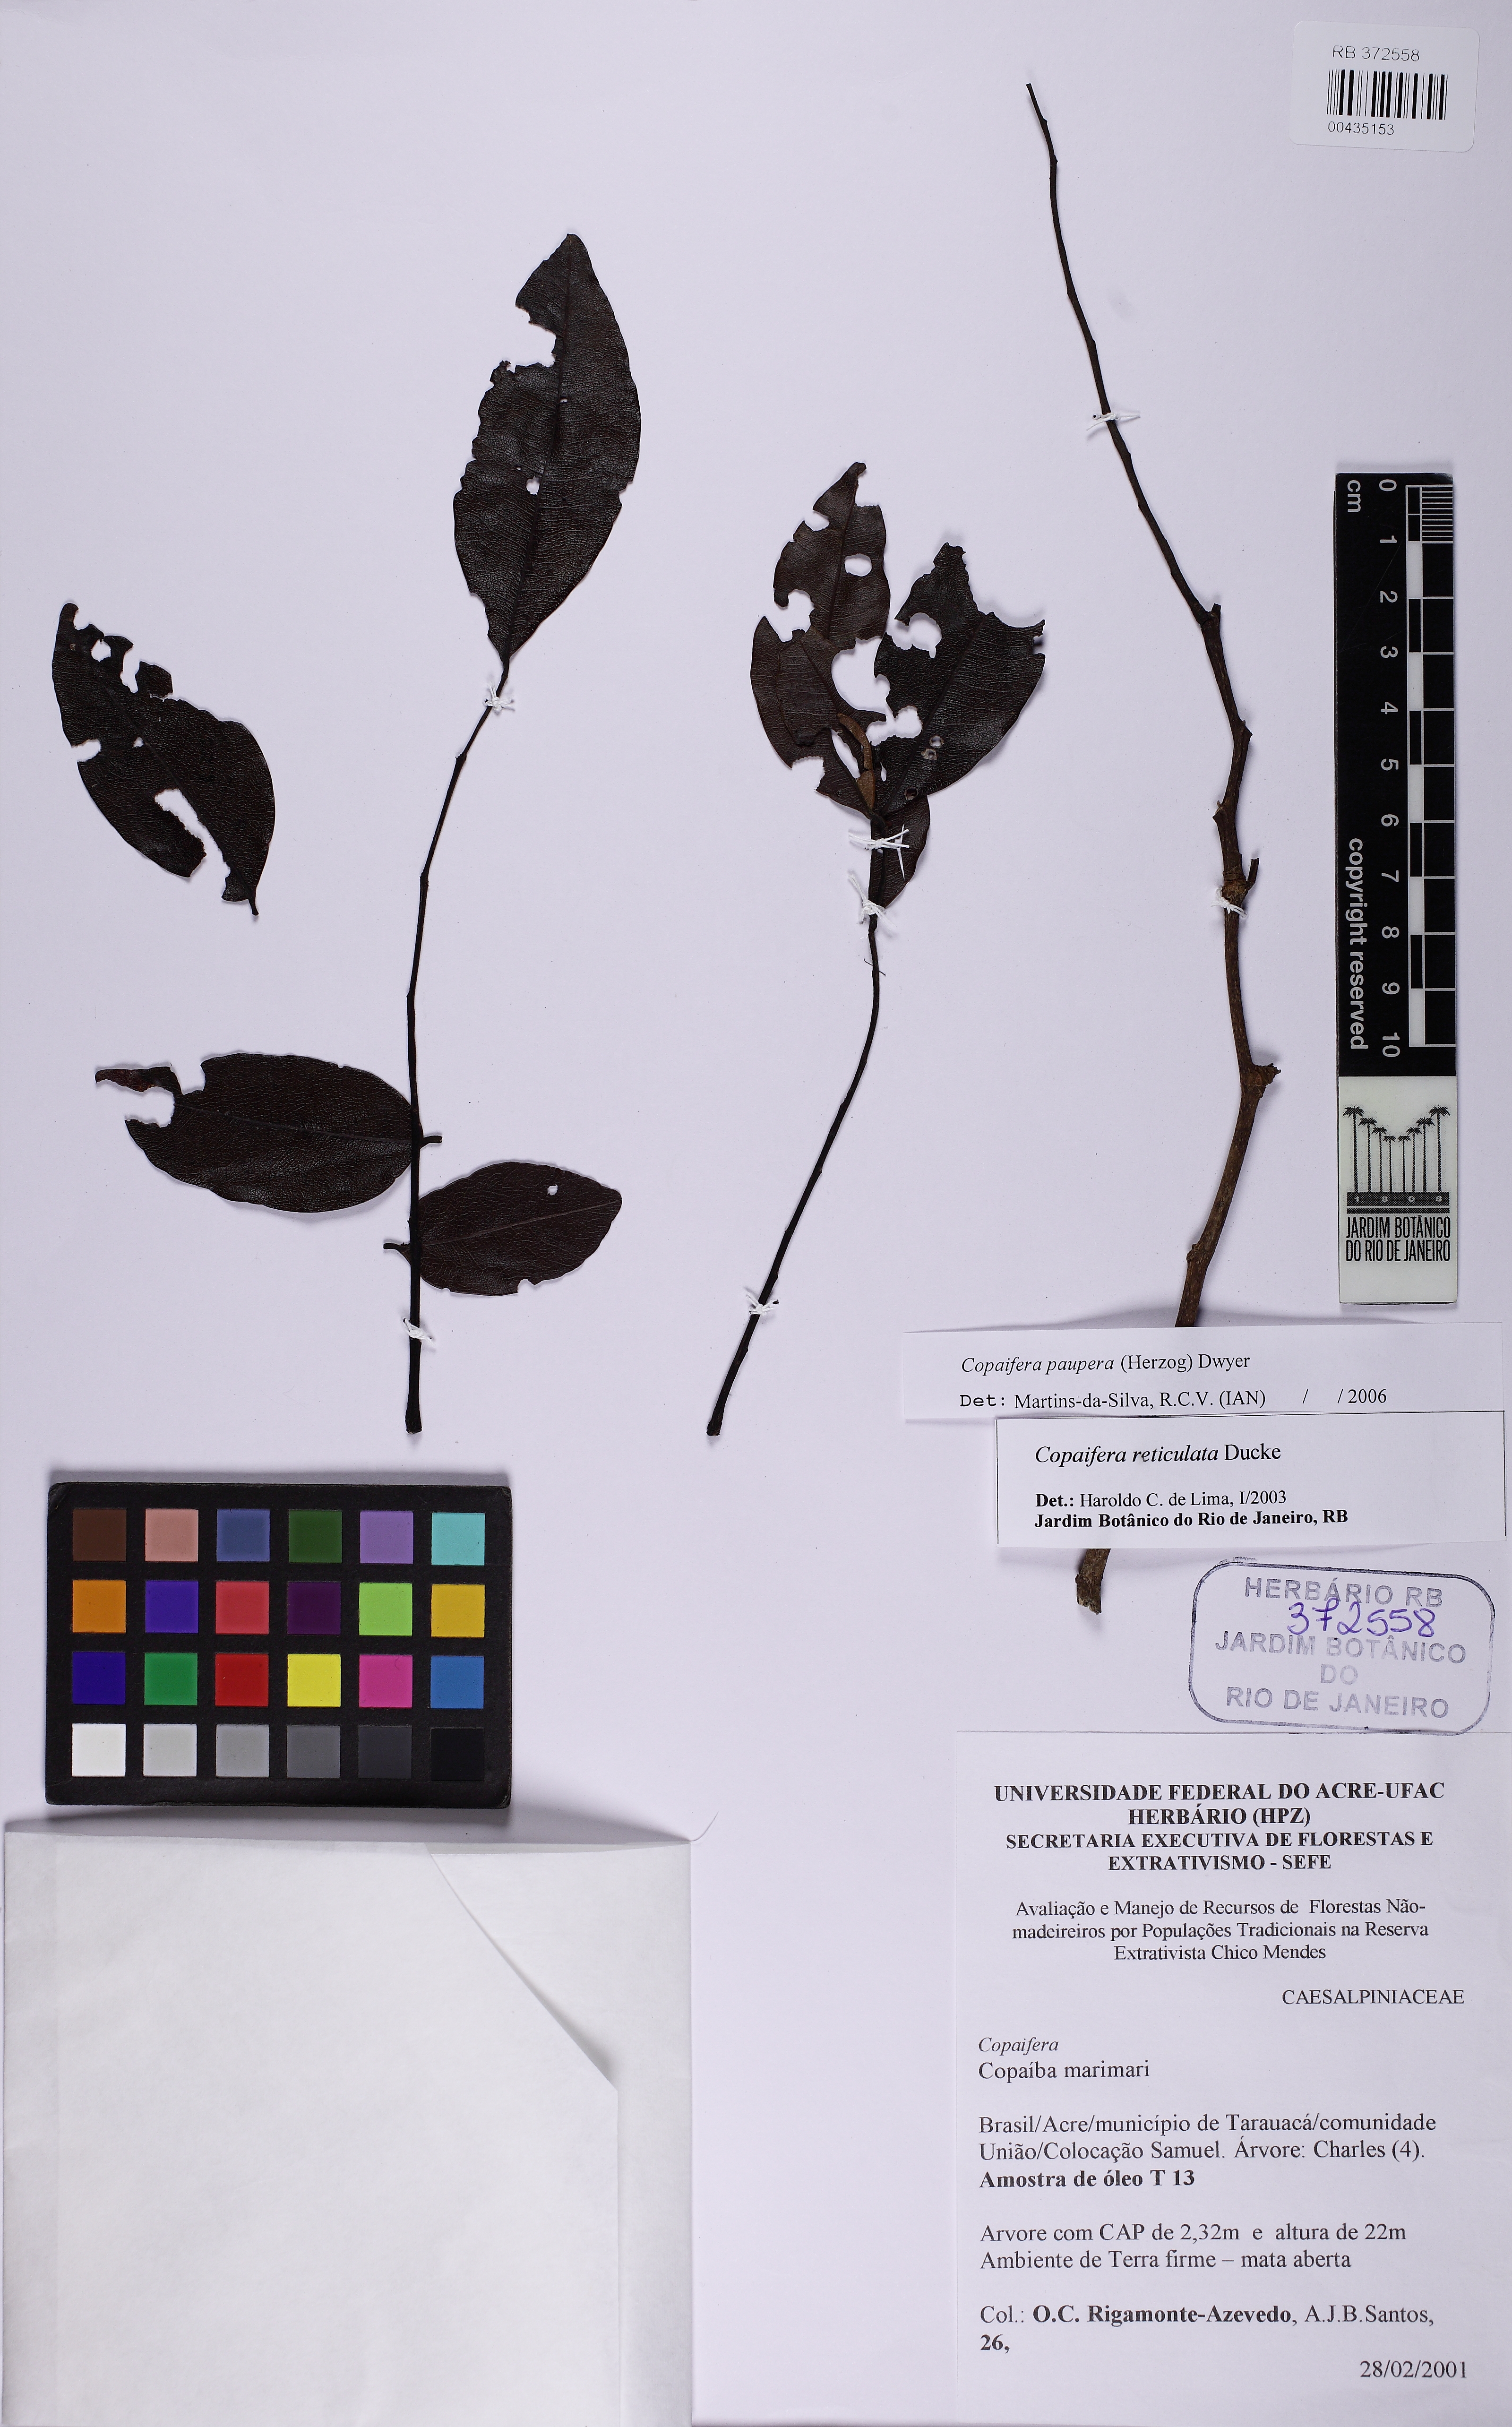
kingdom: Plantae
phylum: Tracheophyta
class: Magnoliopsida
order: Fabales
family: Fabaceae
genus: Copaifera
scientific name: Copaifera copaibo
